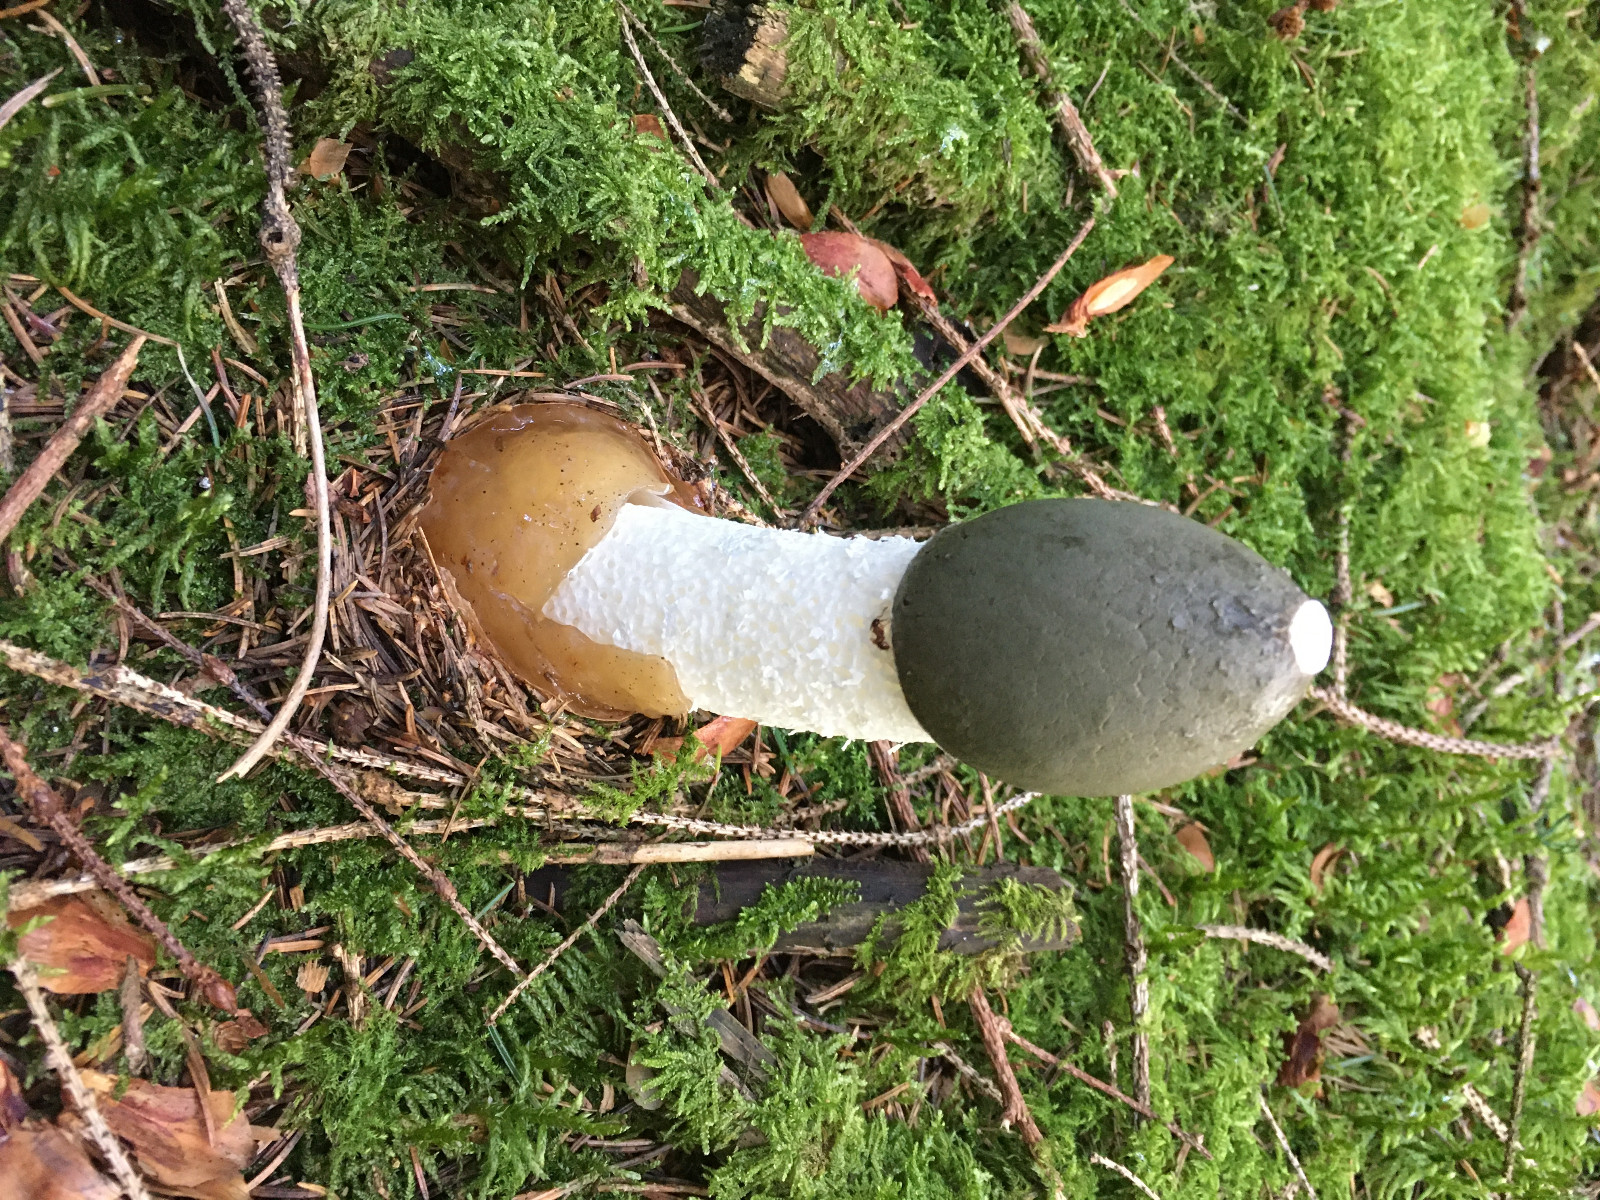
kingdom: Fungi
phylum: Basidiomycota
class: Agaricomycetes
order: Phallales
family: Phallaceae
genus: Phallus
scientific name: Phallus impudicus
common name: almindelig stinksvamp
